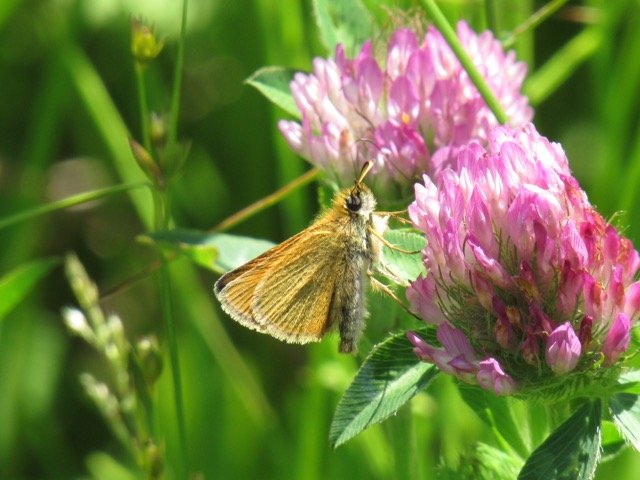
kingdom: Animalia
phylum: Arthropoda
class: Insecta
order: Lepidoptera
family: Hesperiidae
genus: Thymelicus
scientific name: Thymelicus lineola
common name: European Skipper
